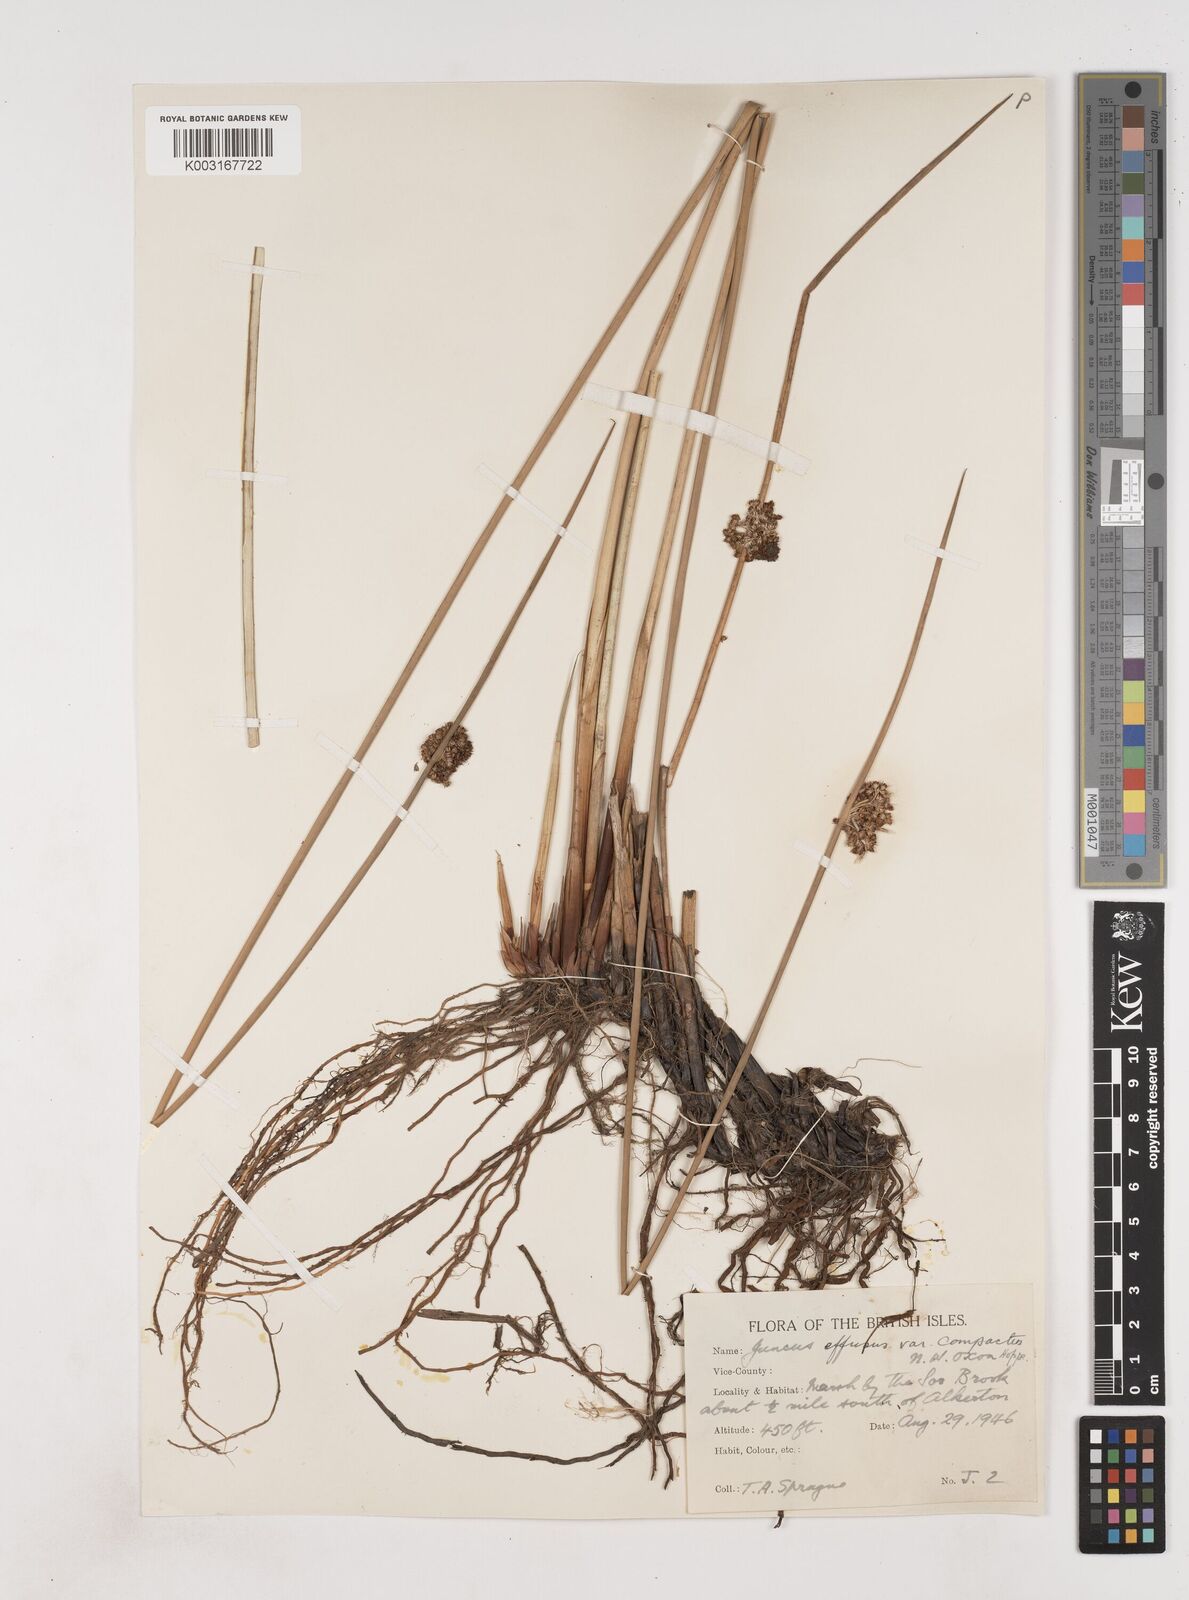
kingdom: Plantae
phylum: Tracheophyta
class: Liliopsida
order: Poales
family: Juncaceae
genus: Juncus
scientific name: Juncus effusus
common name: Soft rush
